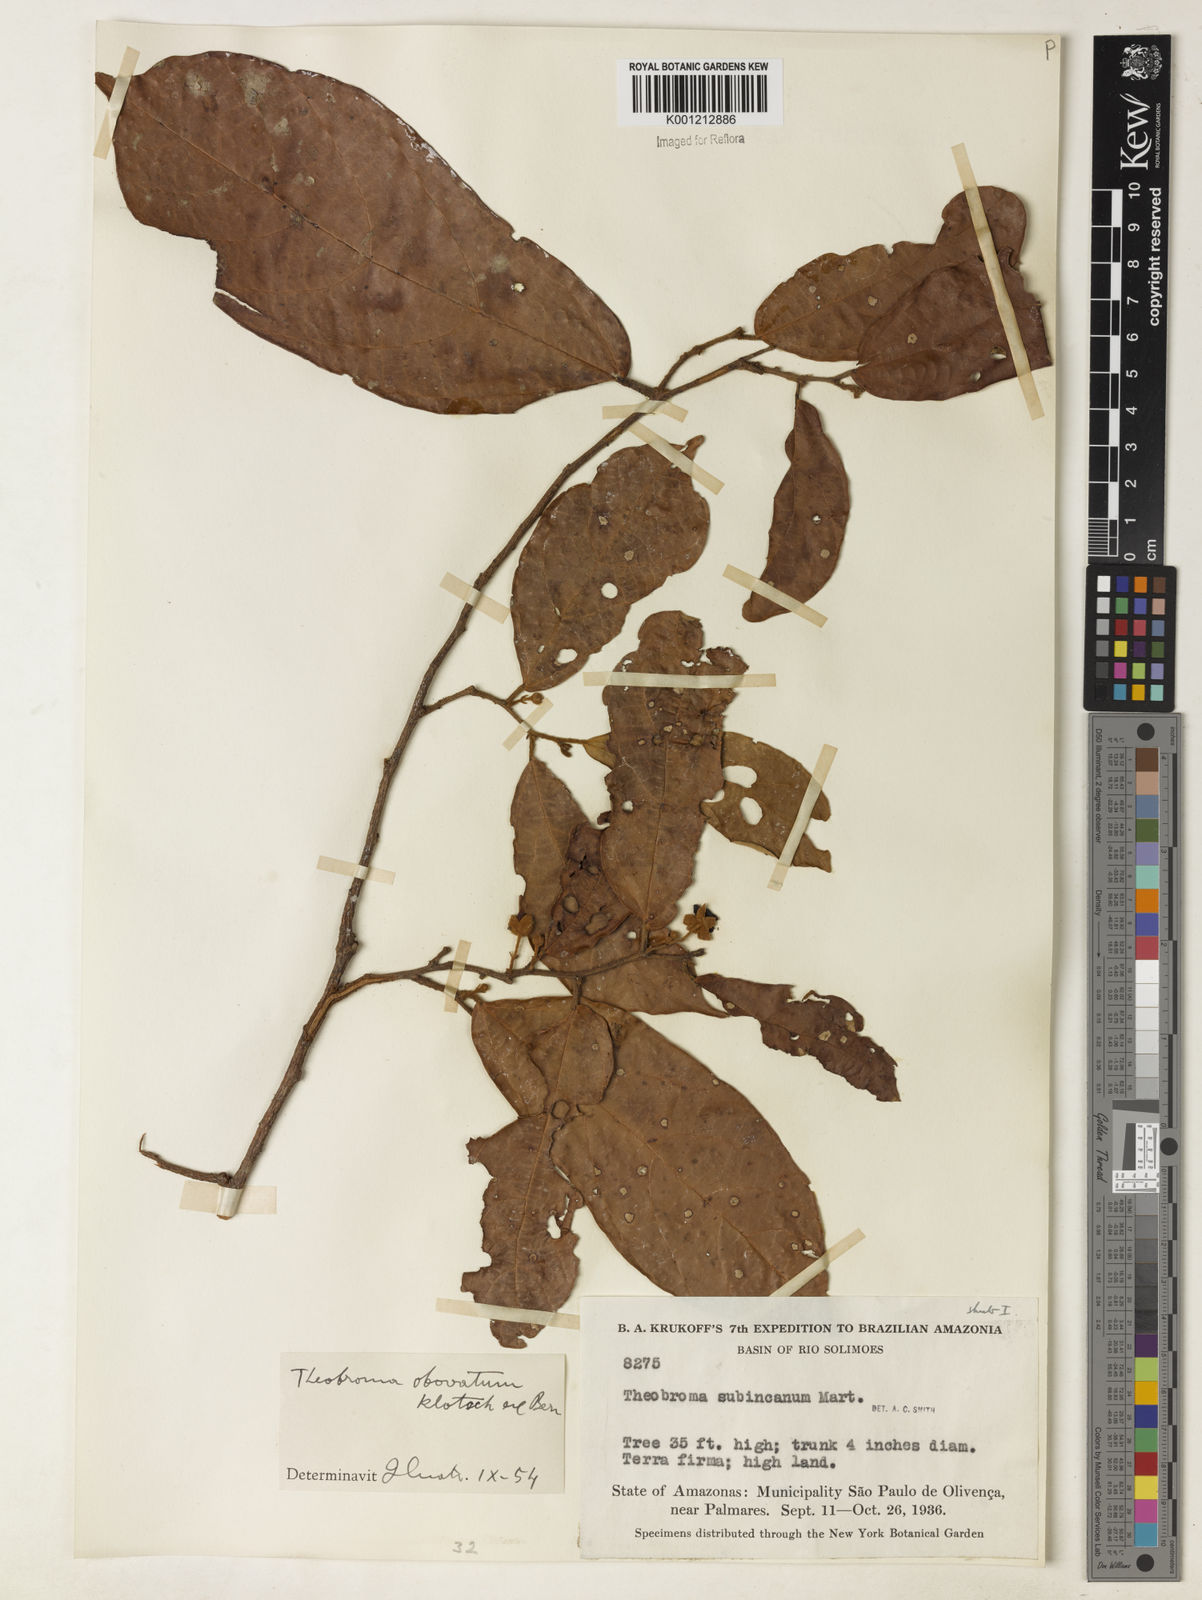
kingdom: Plantae
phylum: Tracheophyta
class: Magnoliopsida
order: Malvales
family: Malvaceae
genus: Theobroma
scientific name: Theobroma obovatum
